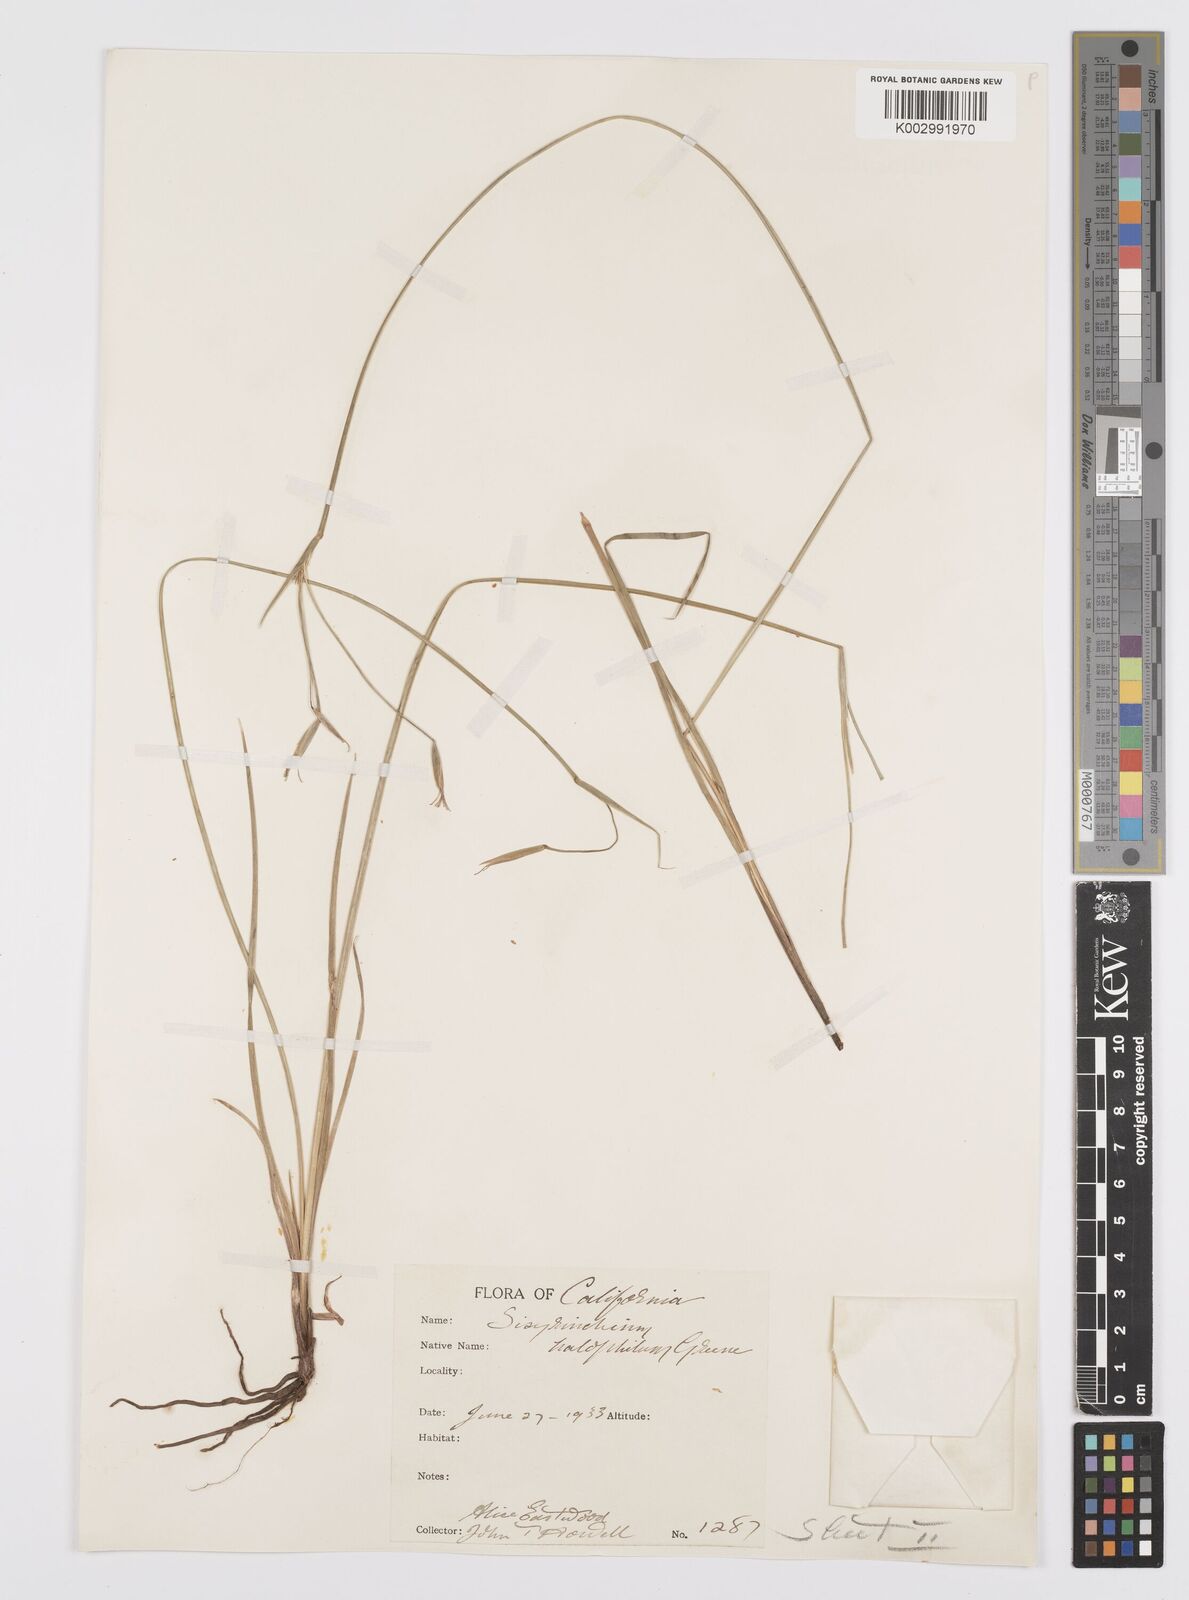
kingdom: Plantae
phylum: Tracheophyta
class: Liliopsida
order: Asparagales
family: Iridaceae
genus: Sisyrinchium
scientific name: Sisyrinchium halophilum
